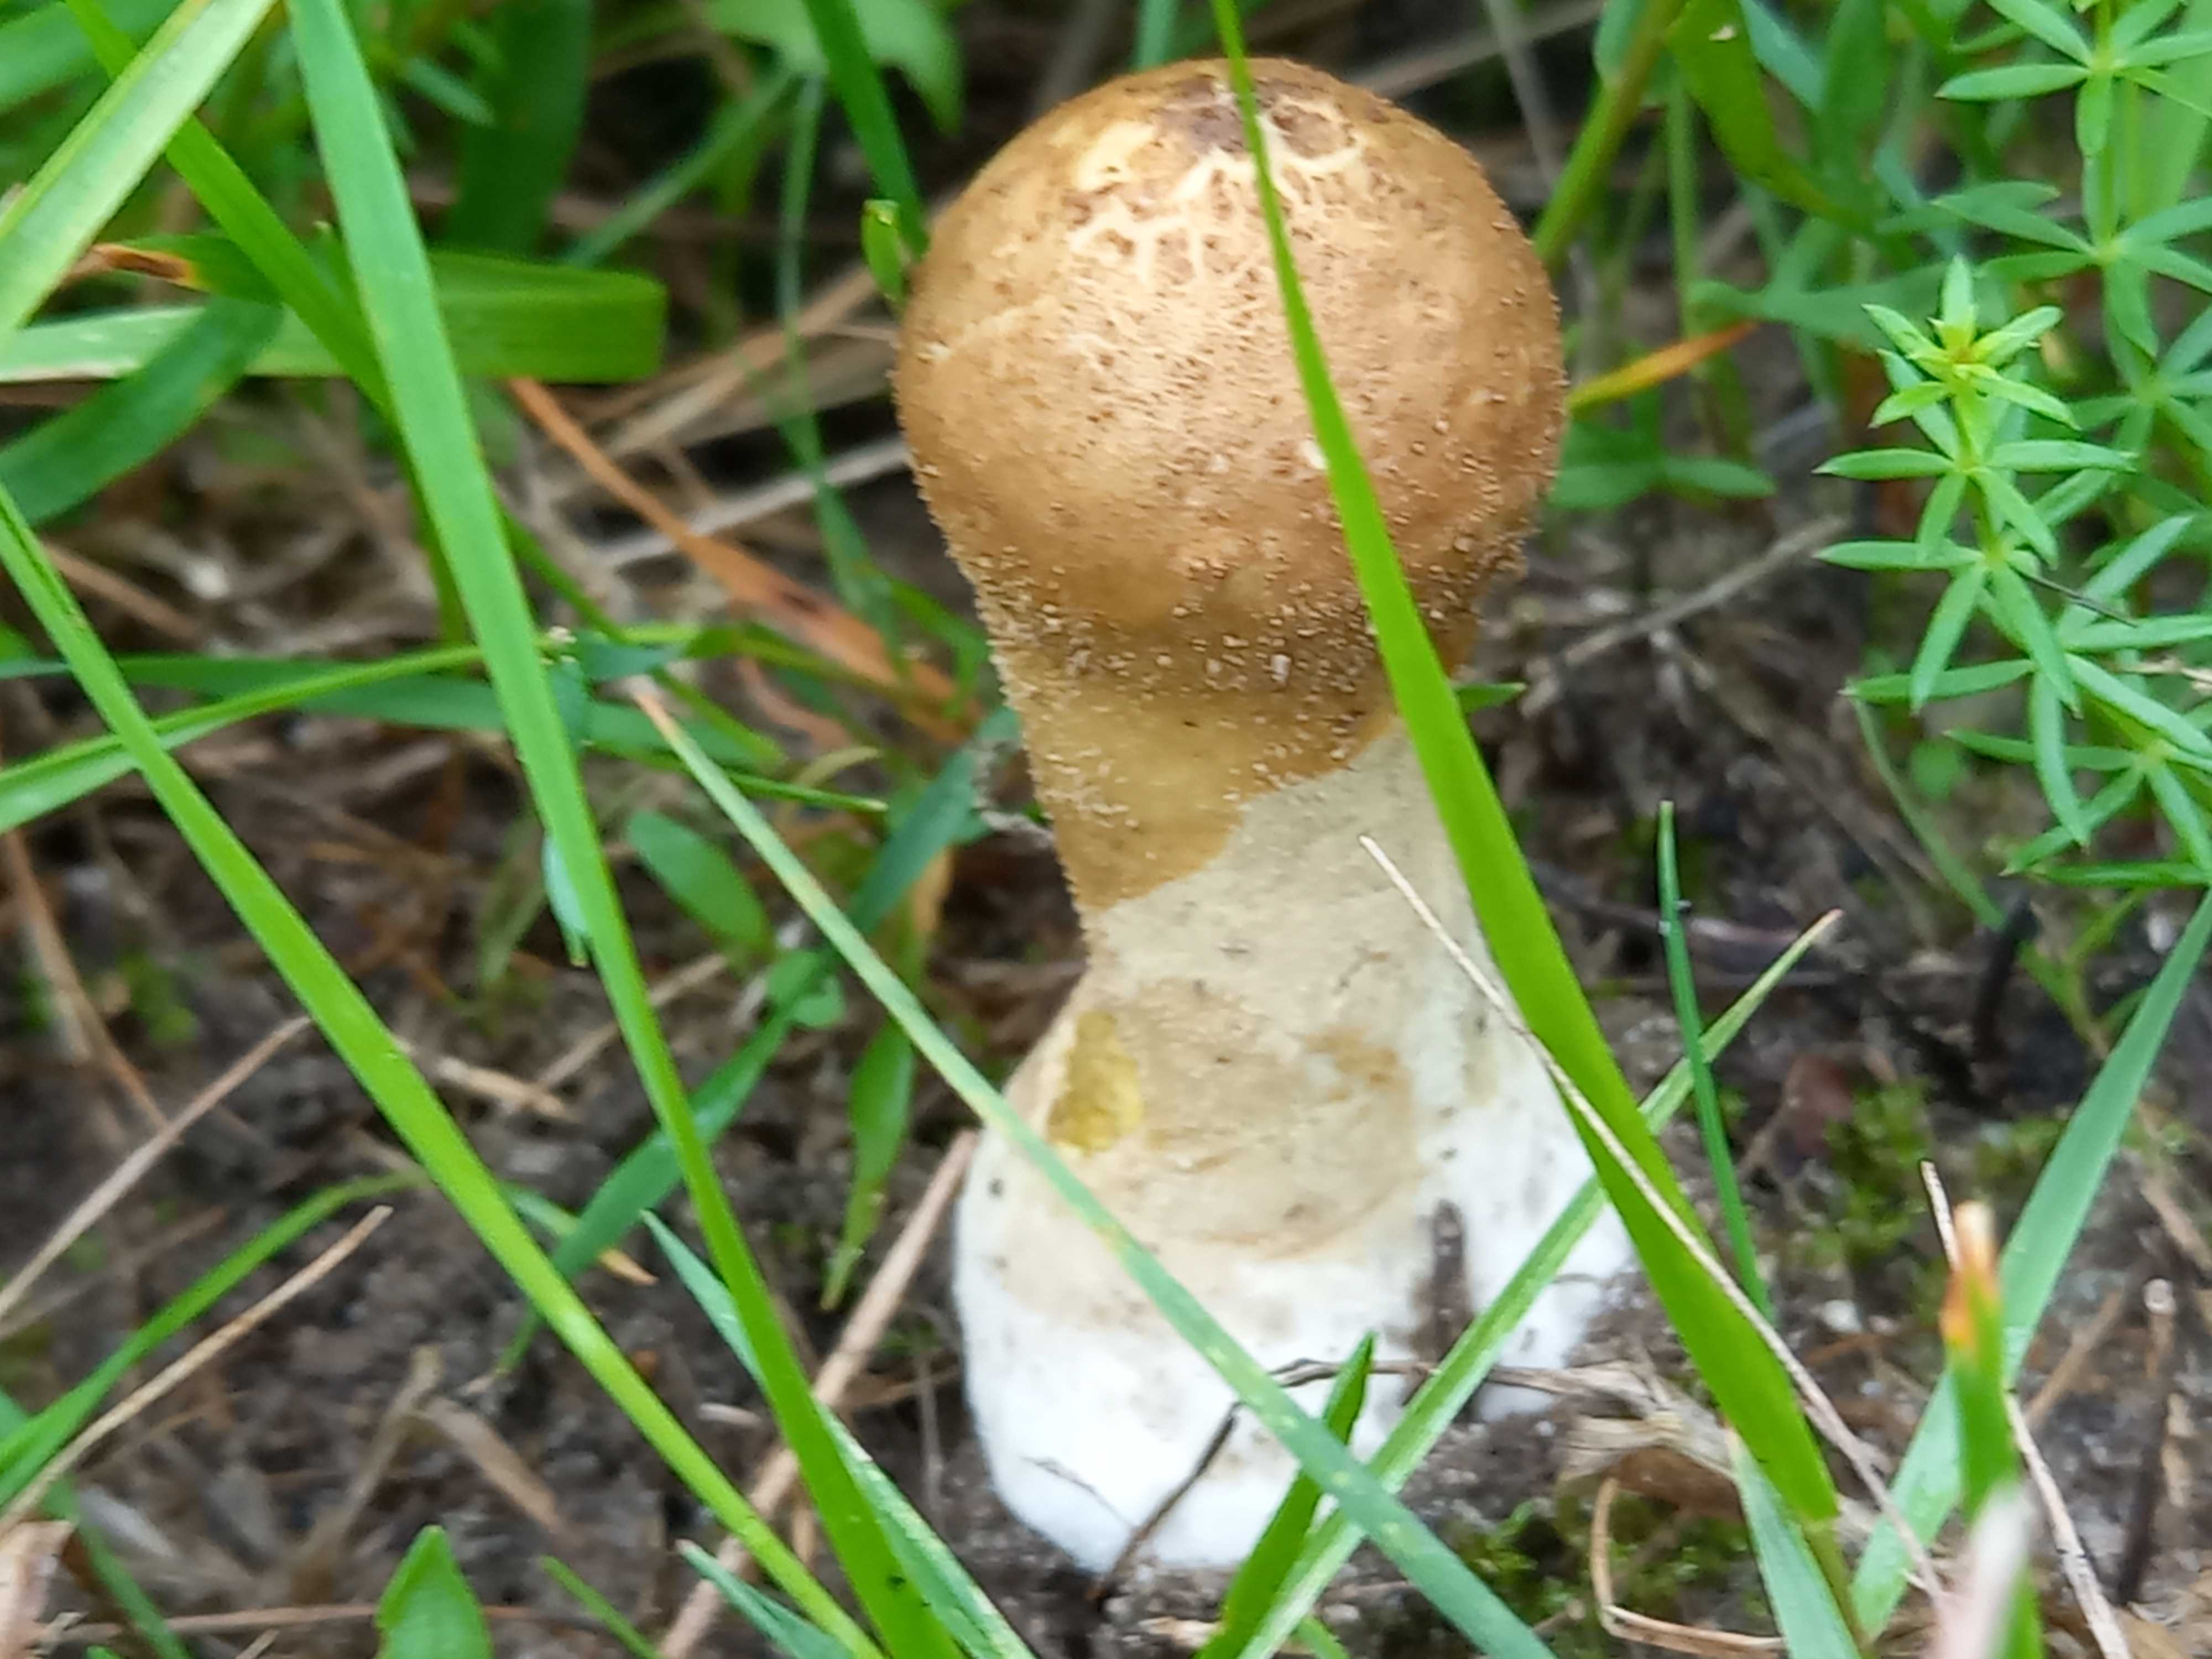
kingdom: Fungi
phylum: Basidiomycota
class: Agaricomycetes
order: Agaricales
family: Lycoperdaceae
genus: Lycoperdon
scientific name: Lycoperdon lividum
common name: mark-støvbold
